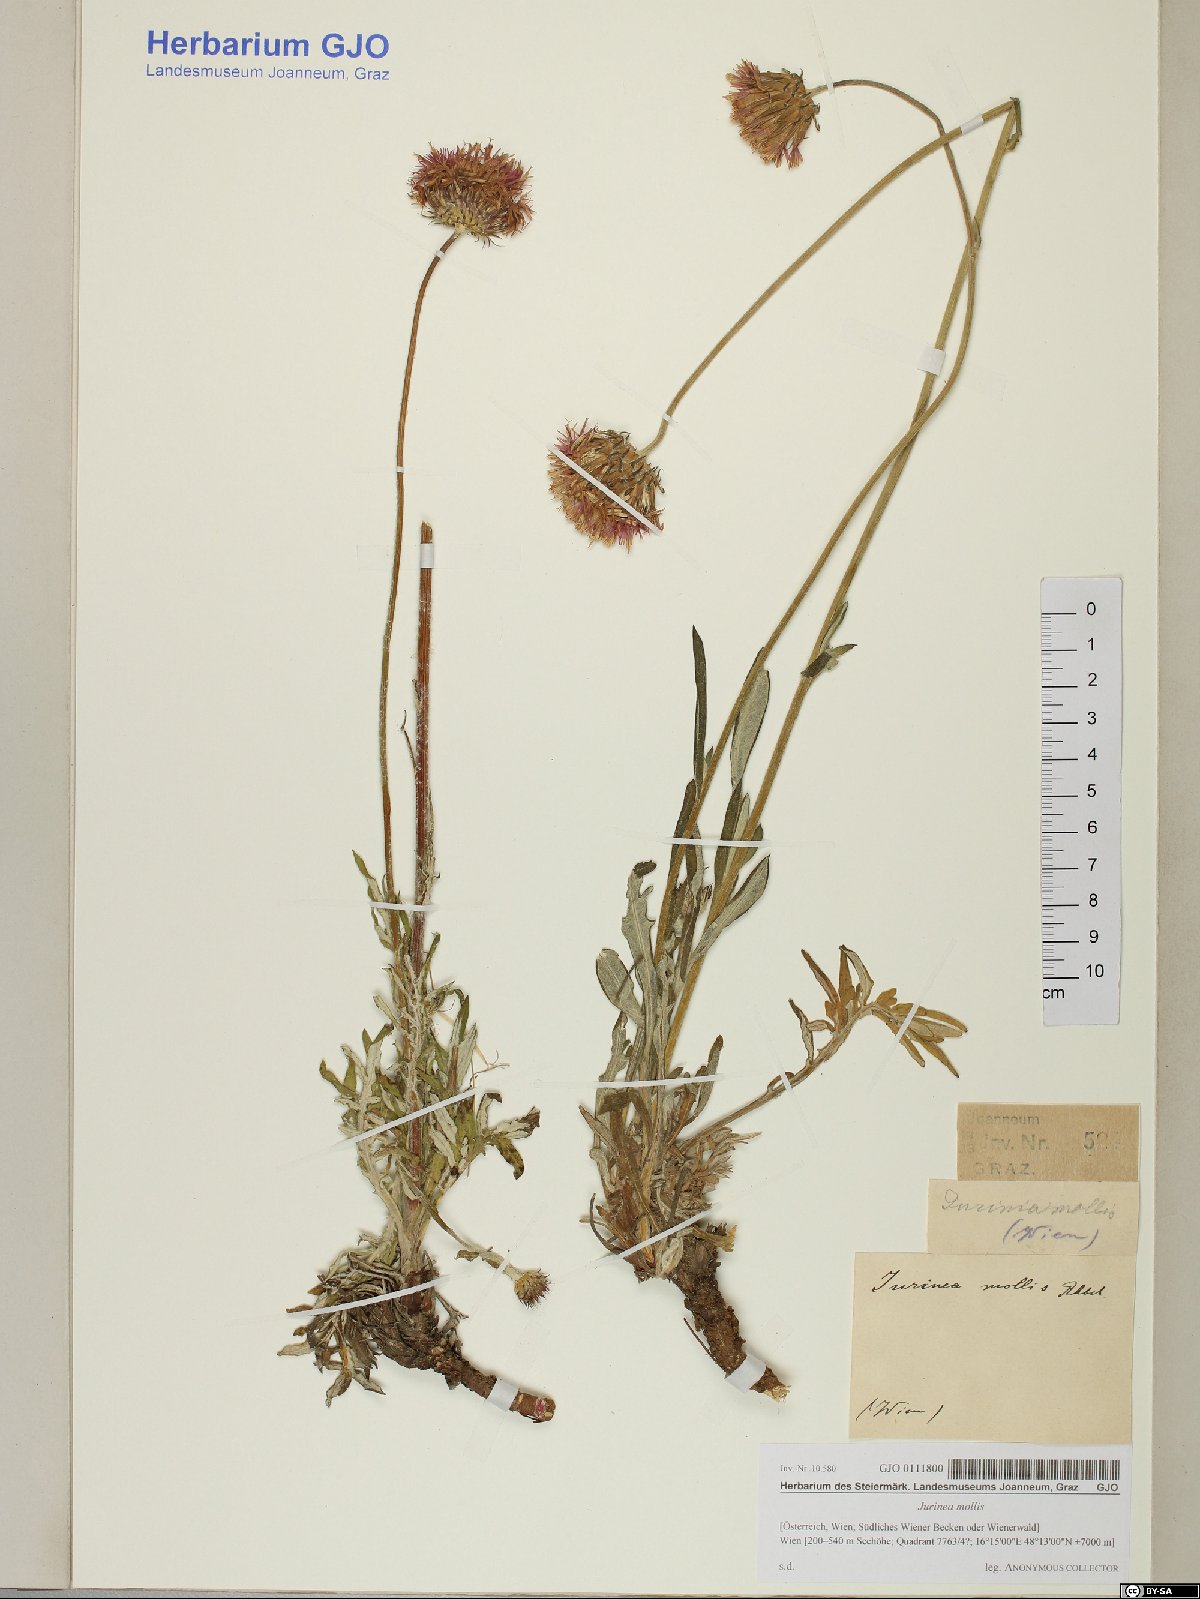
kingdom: Plantae
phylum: Tracheophyta
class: Magnoliopsida
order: Asterales
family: Asteraceae
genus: Jurinea
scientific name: Jurinea mollis
